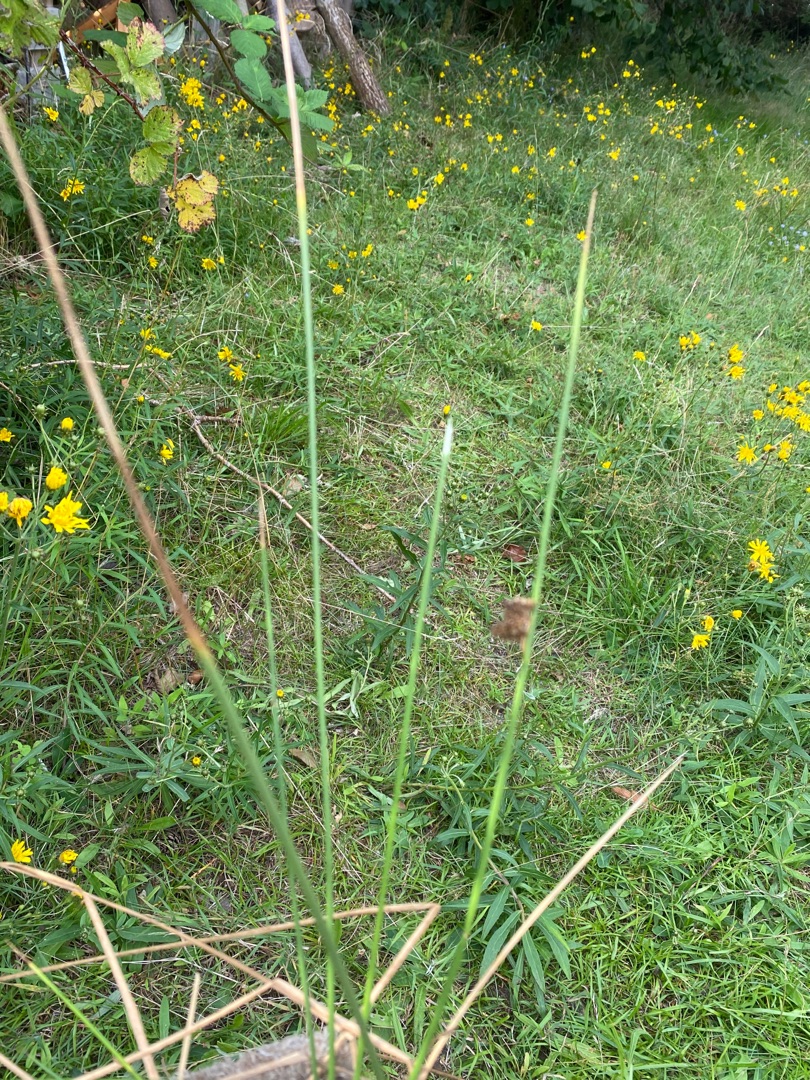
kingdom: Plantae
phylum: Tracheophyta
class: Liliopsida
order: Poales
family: Juncaceae
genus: Juncus
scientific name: Juncus conglomeratus
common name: Knop-siv
